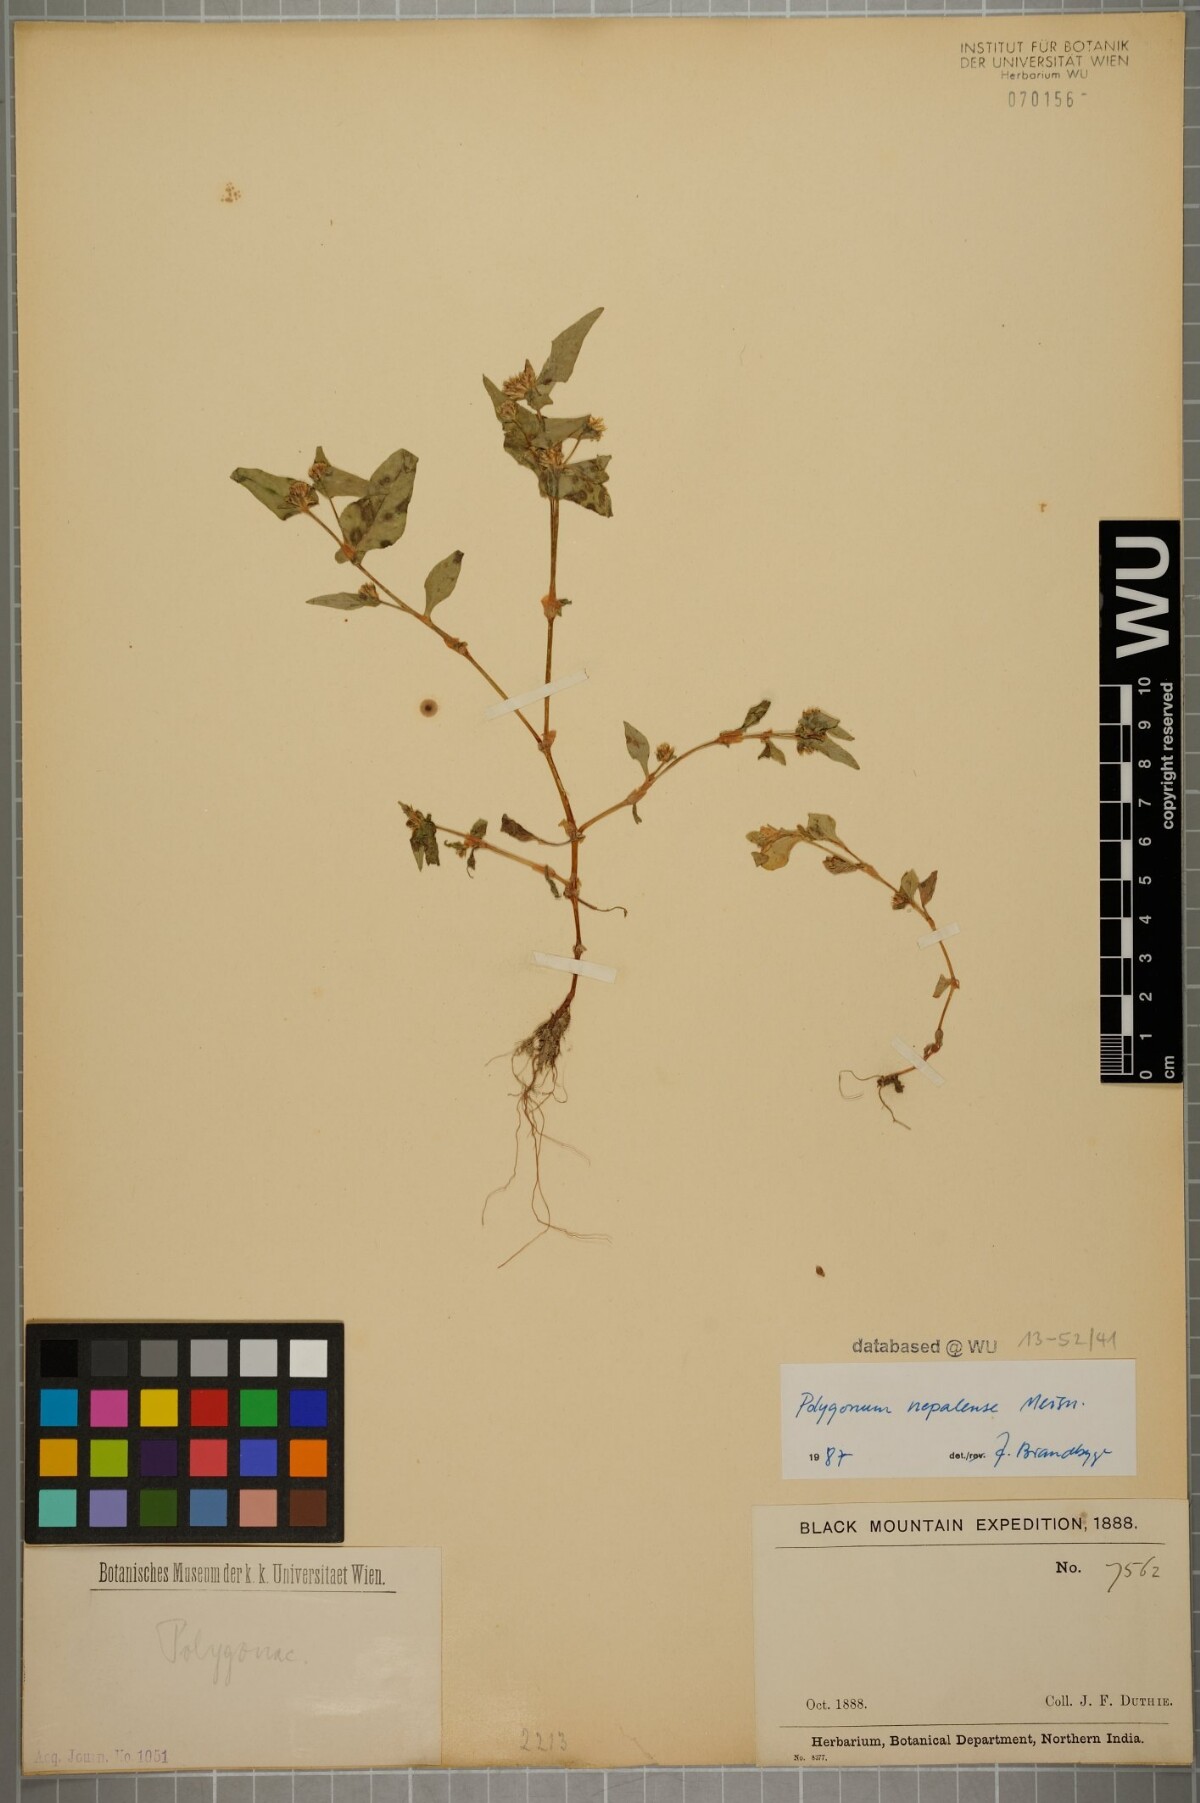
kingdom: Plantae
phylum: Tracheophyta
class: Magnoliopsida
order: Caryophyllales
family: Polygonaceae
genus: Persicaria
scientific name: Persicaria nepalensis
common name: Nepal persicaria
